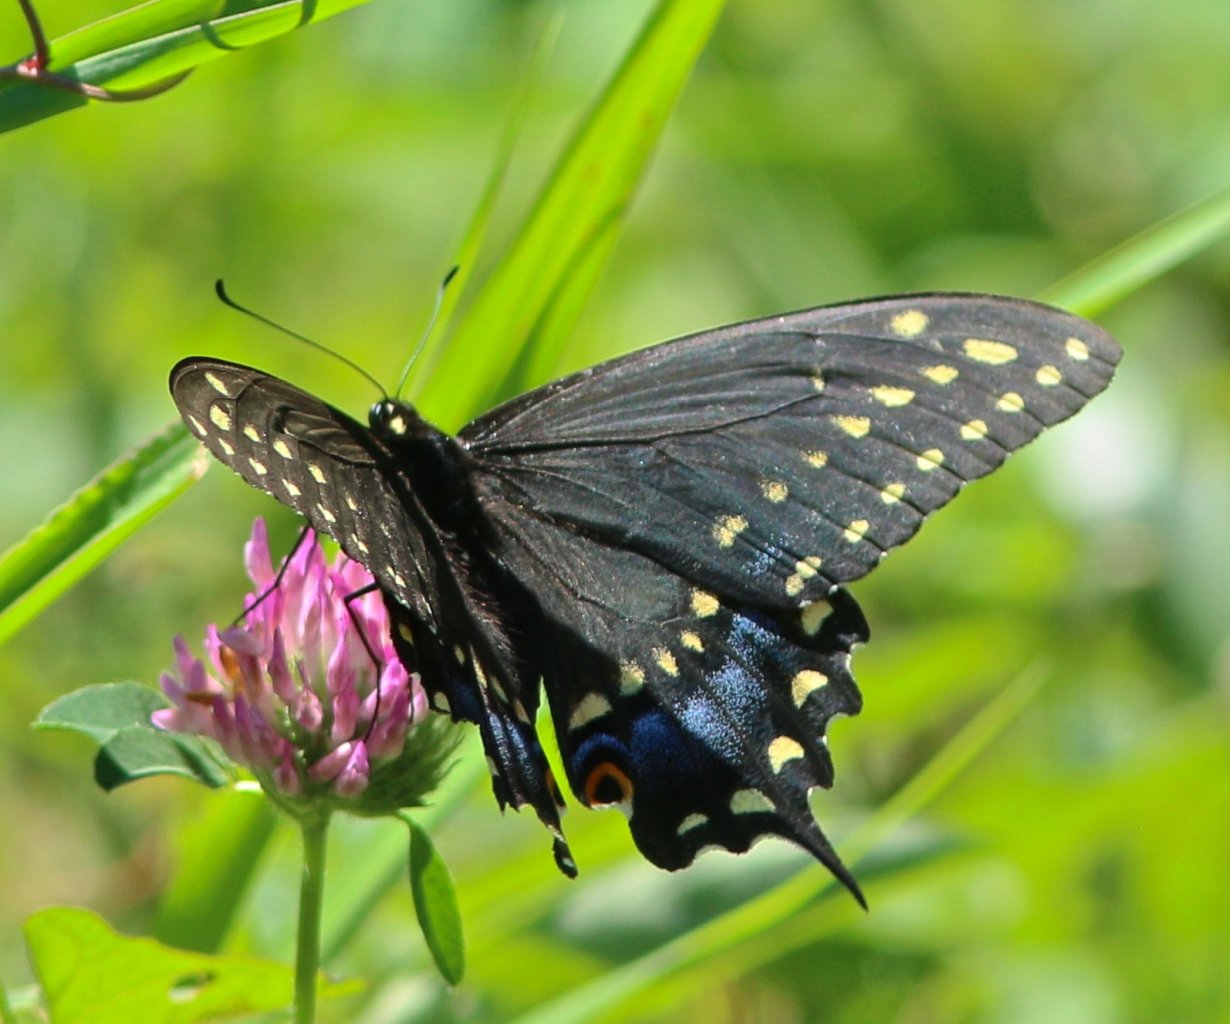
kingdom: Animalia
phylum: Arthropoda
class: Insecta
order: Lepidoptera
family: Papilionidae
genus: Papilio
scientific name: Papilio polyxenes
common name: Black Swallowtail
